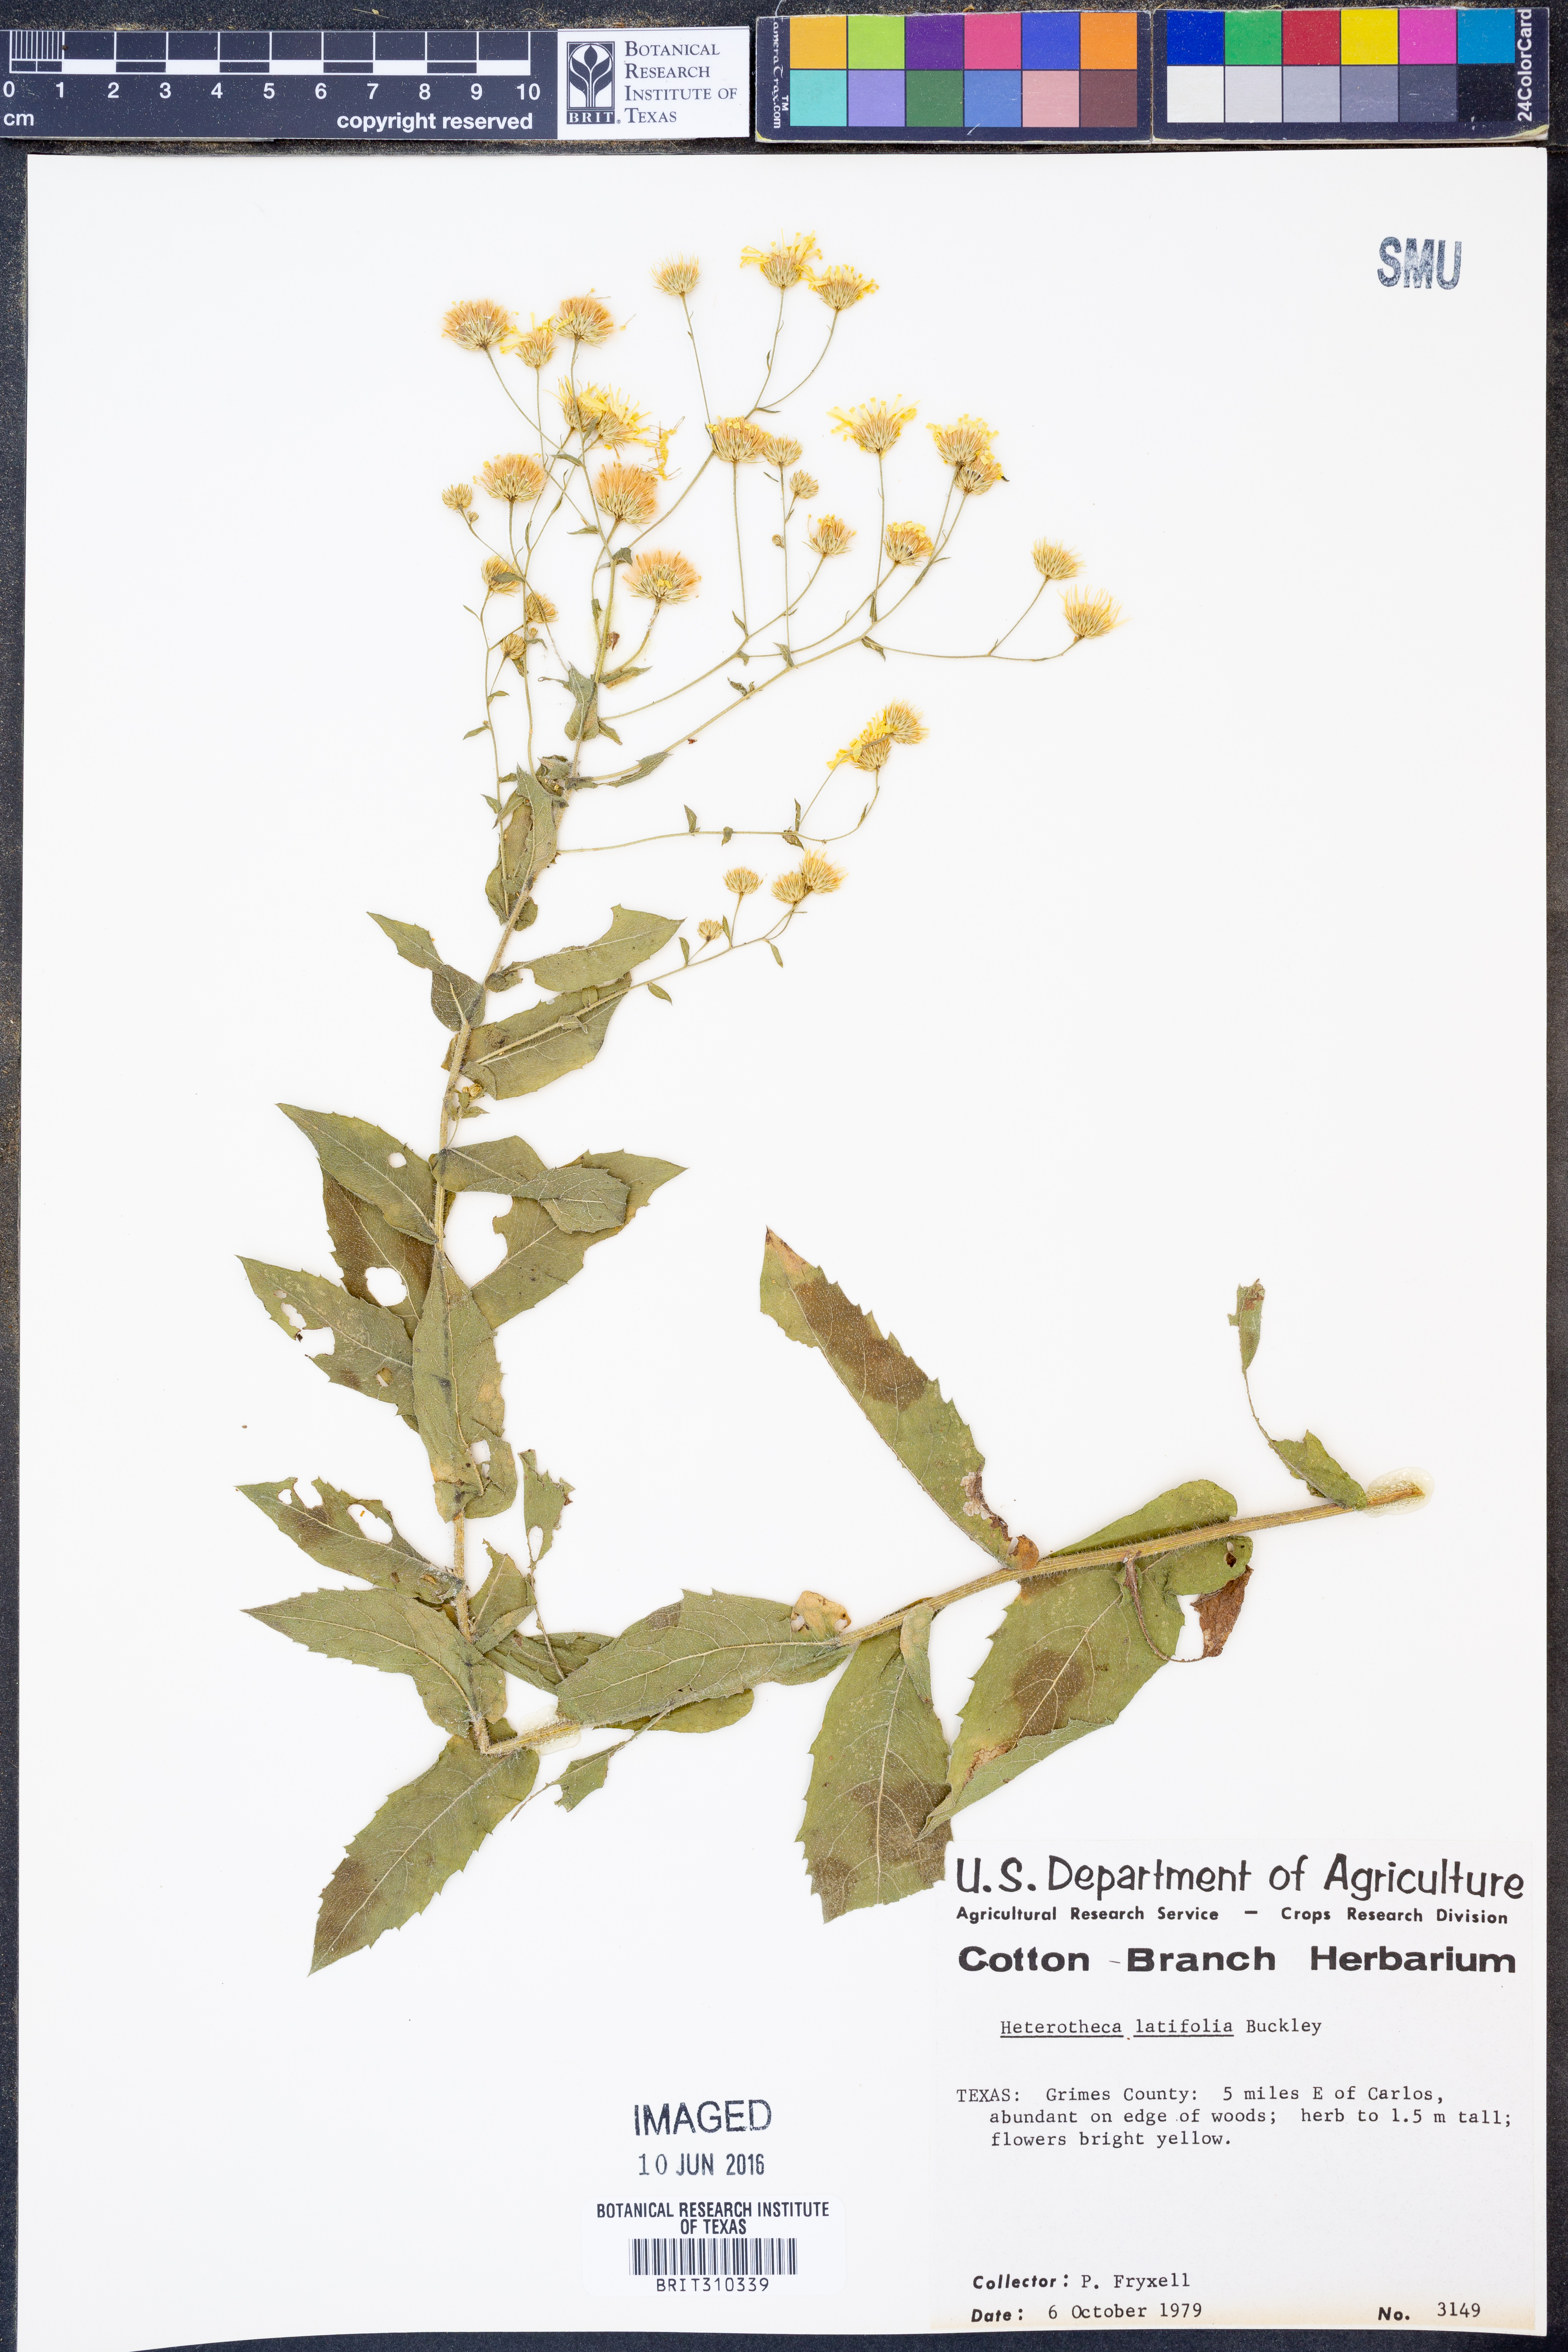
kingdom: Plantae
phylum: Tracheophyta
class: Magnoliopsida
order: Asterales
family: Asteraceae
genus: Heterotheca
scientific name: Heterotheca subaxillaris
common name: Camphorweed
